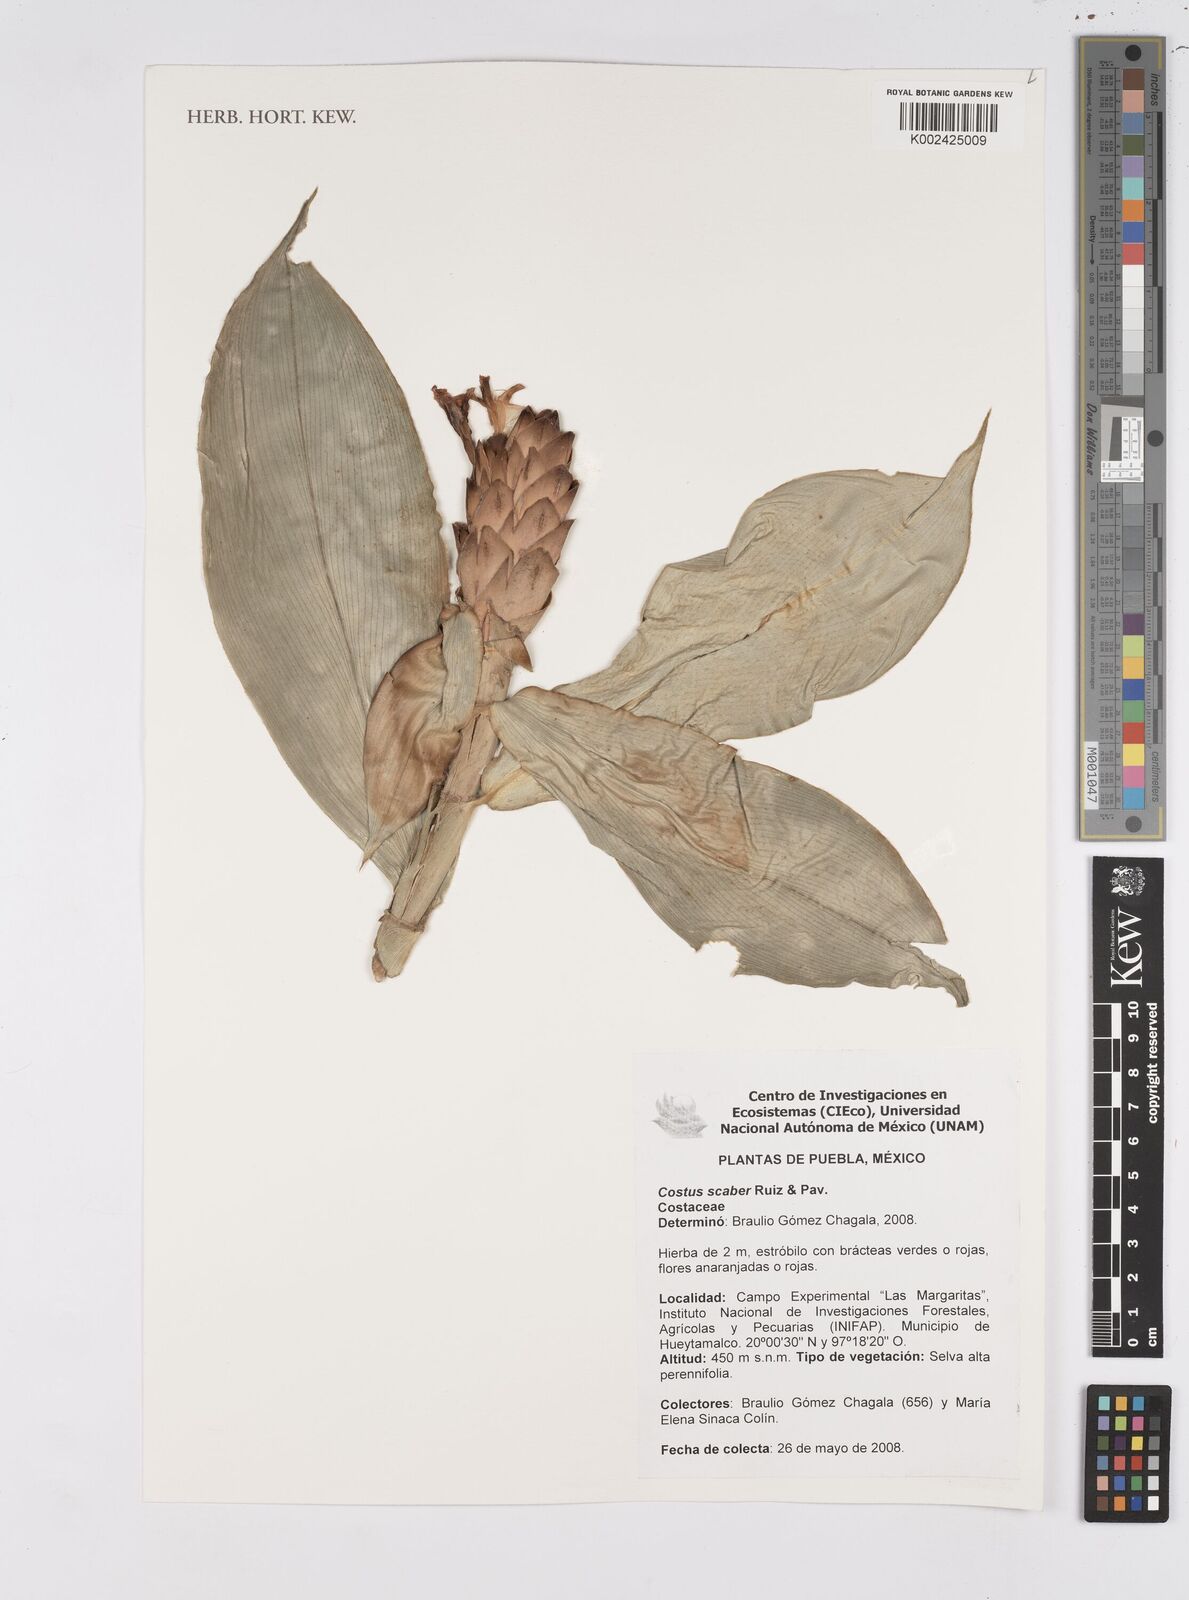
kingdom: Plantae
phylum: Tracheophyta
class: Liliopsida
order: Zingiberales
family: Costaceae
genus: Costus
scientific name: Costus scaber
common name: Spiral head ginger
